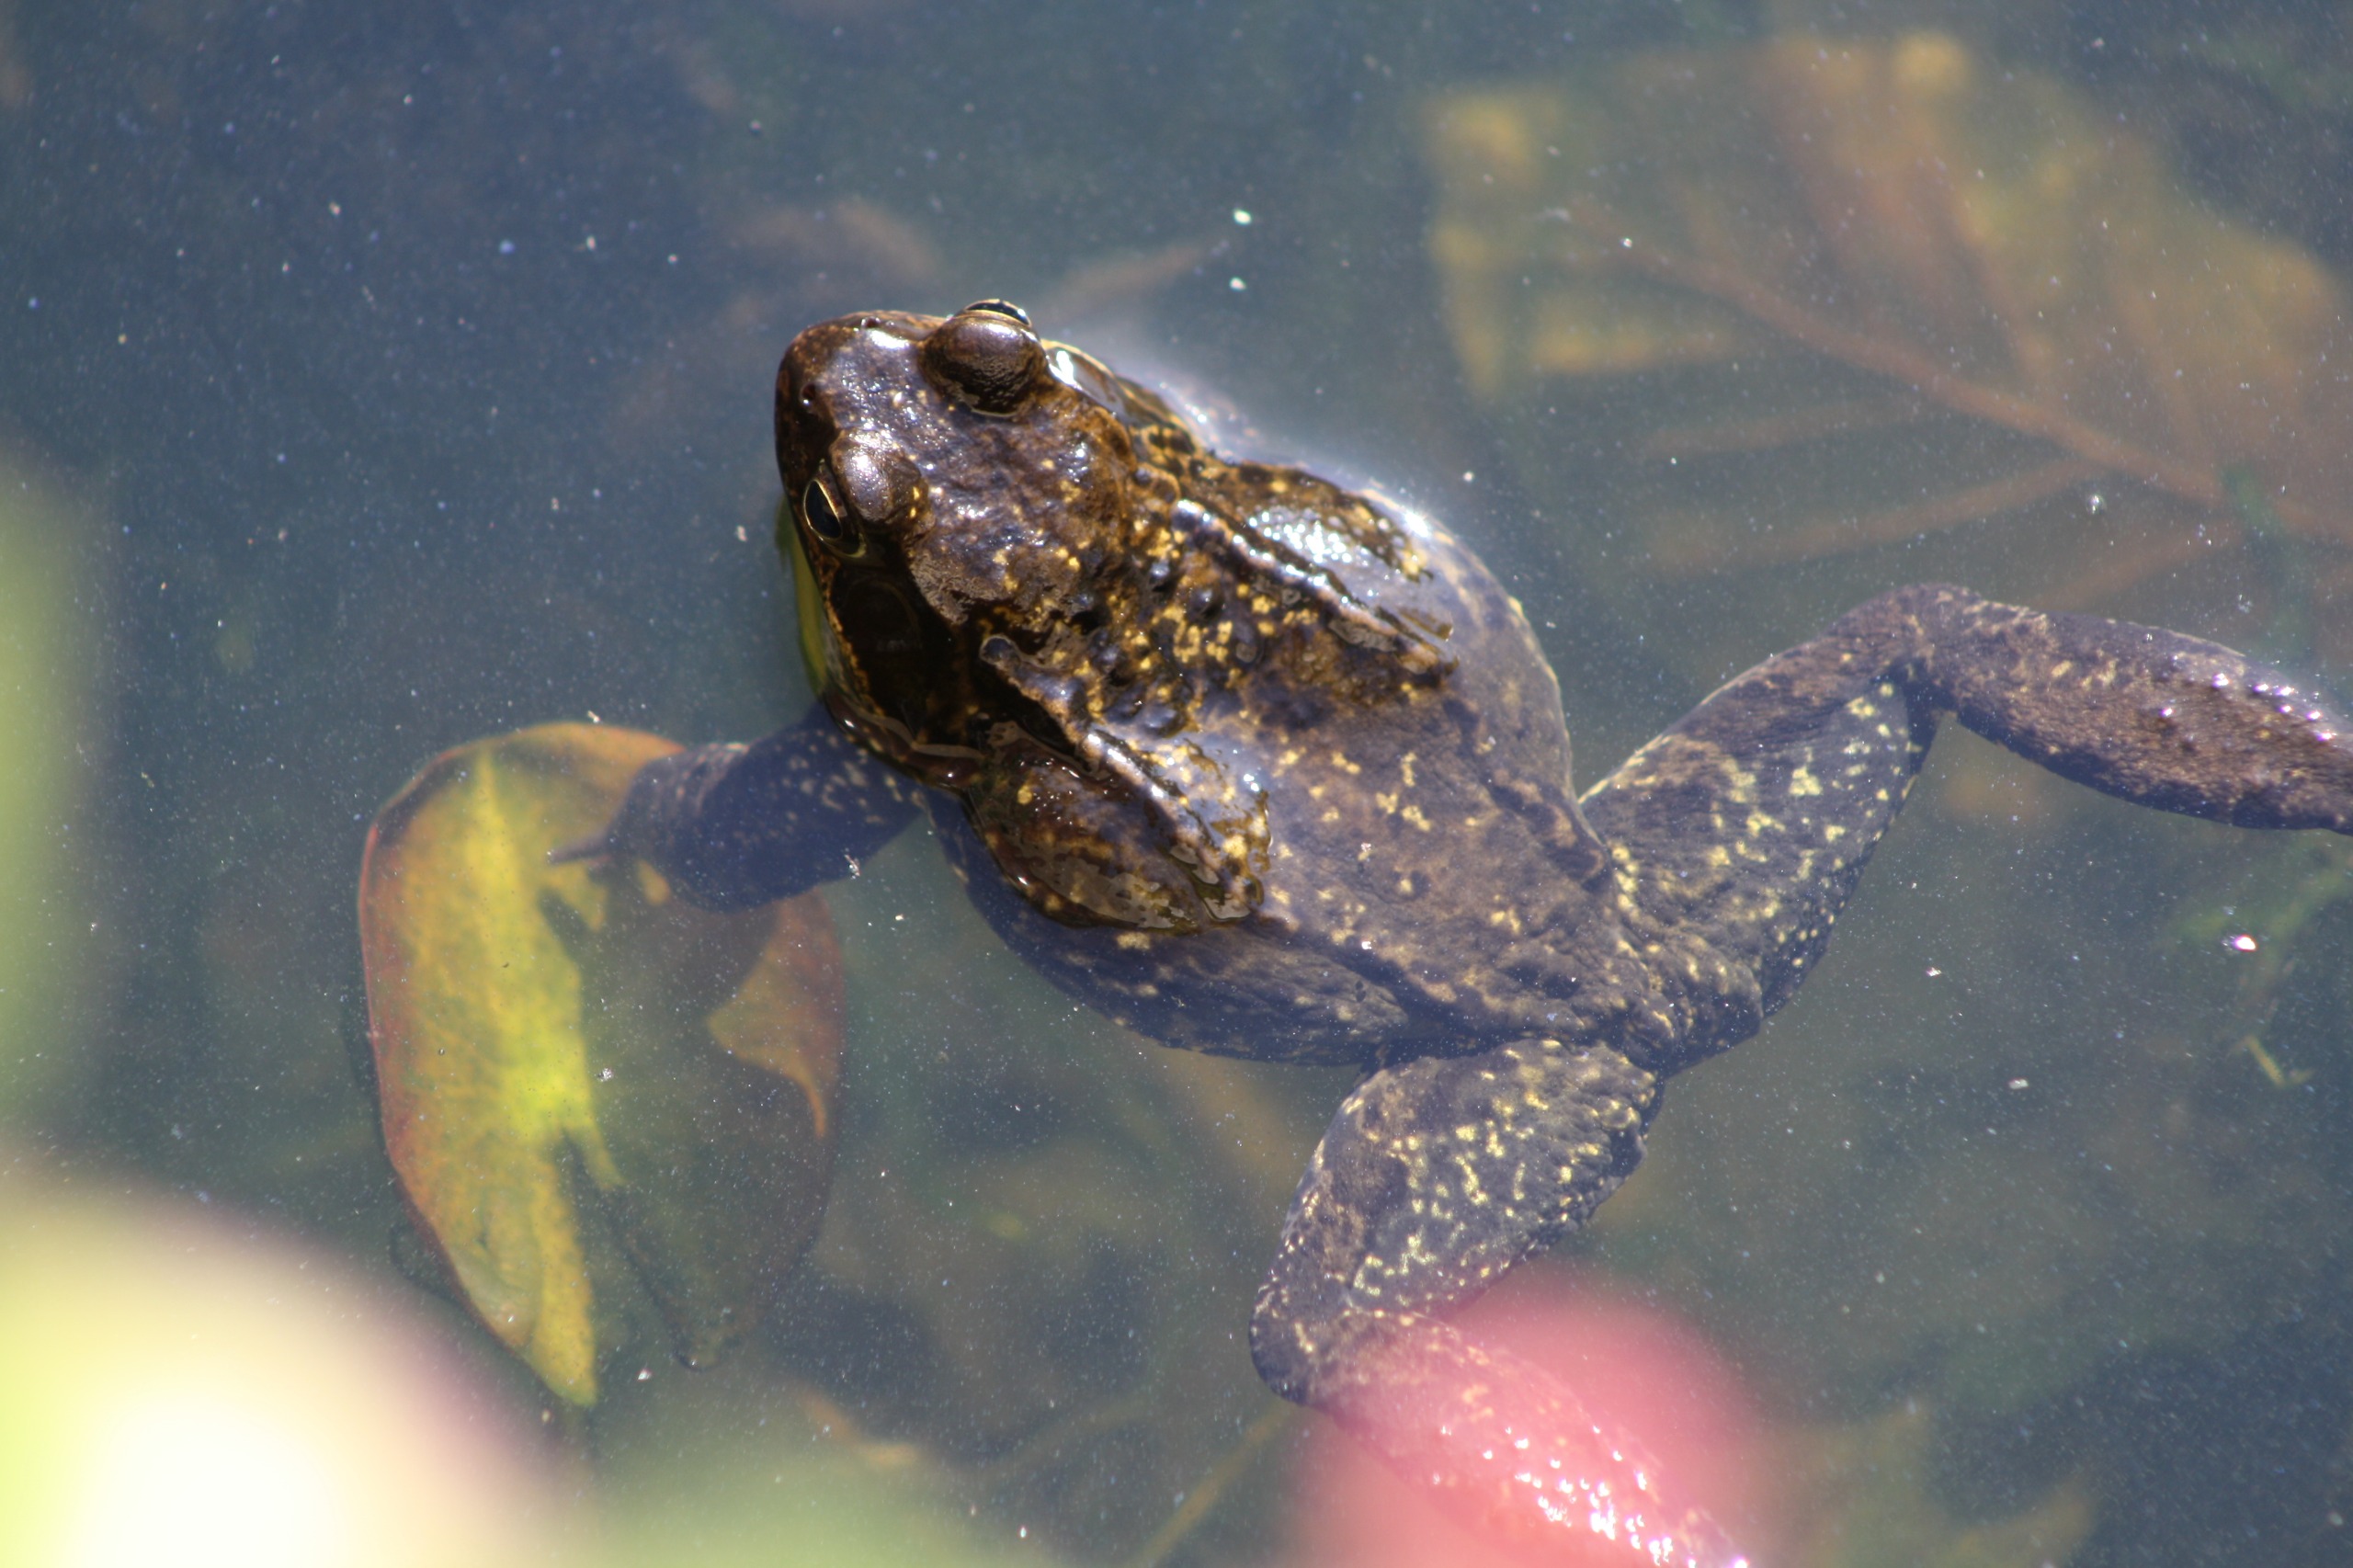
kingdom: Animalia
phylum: Chordata
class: Amphibia
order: Anura
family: Ranidae
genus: Rana
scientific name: Rana temporaria
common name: Butsnudet frø
